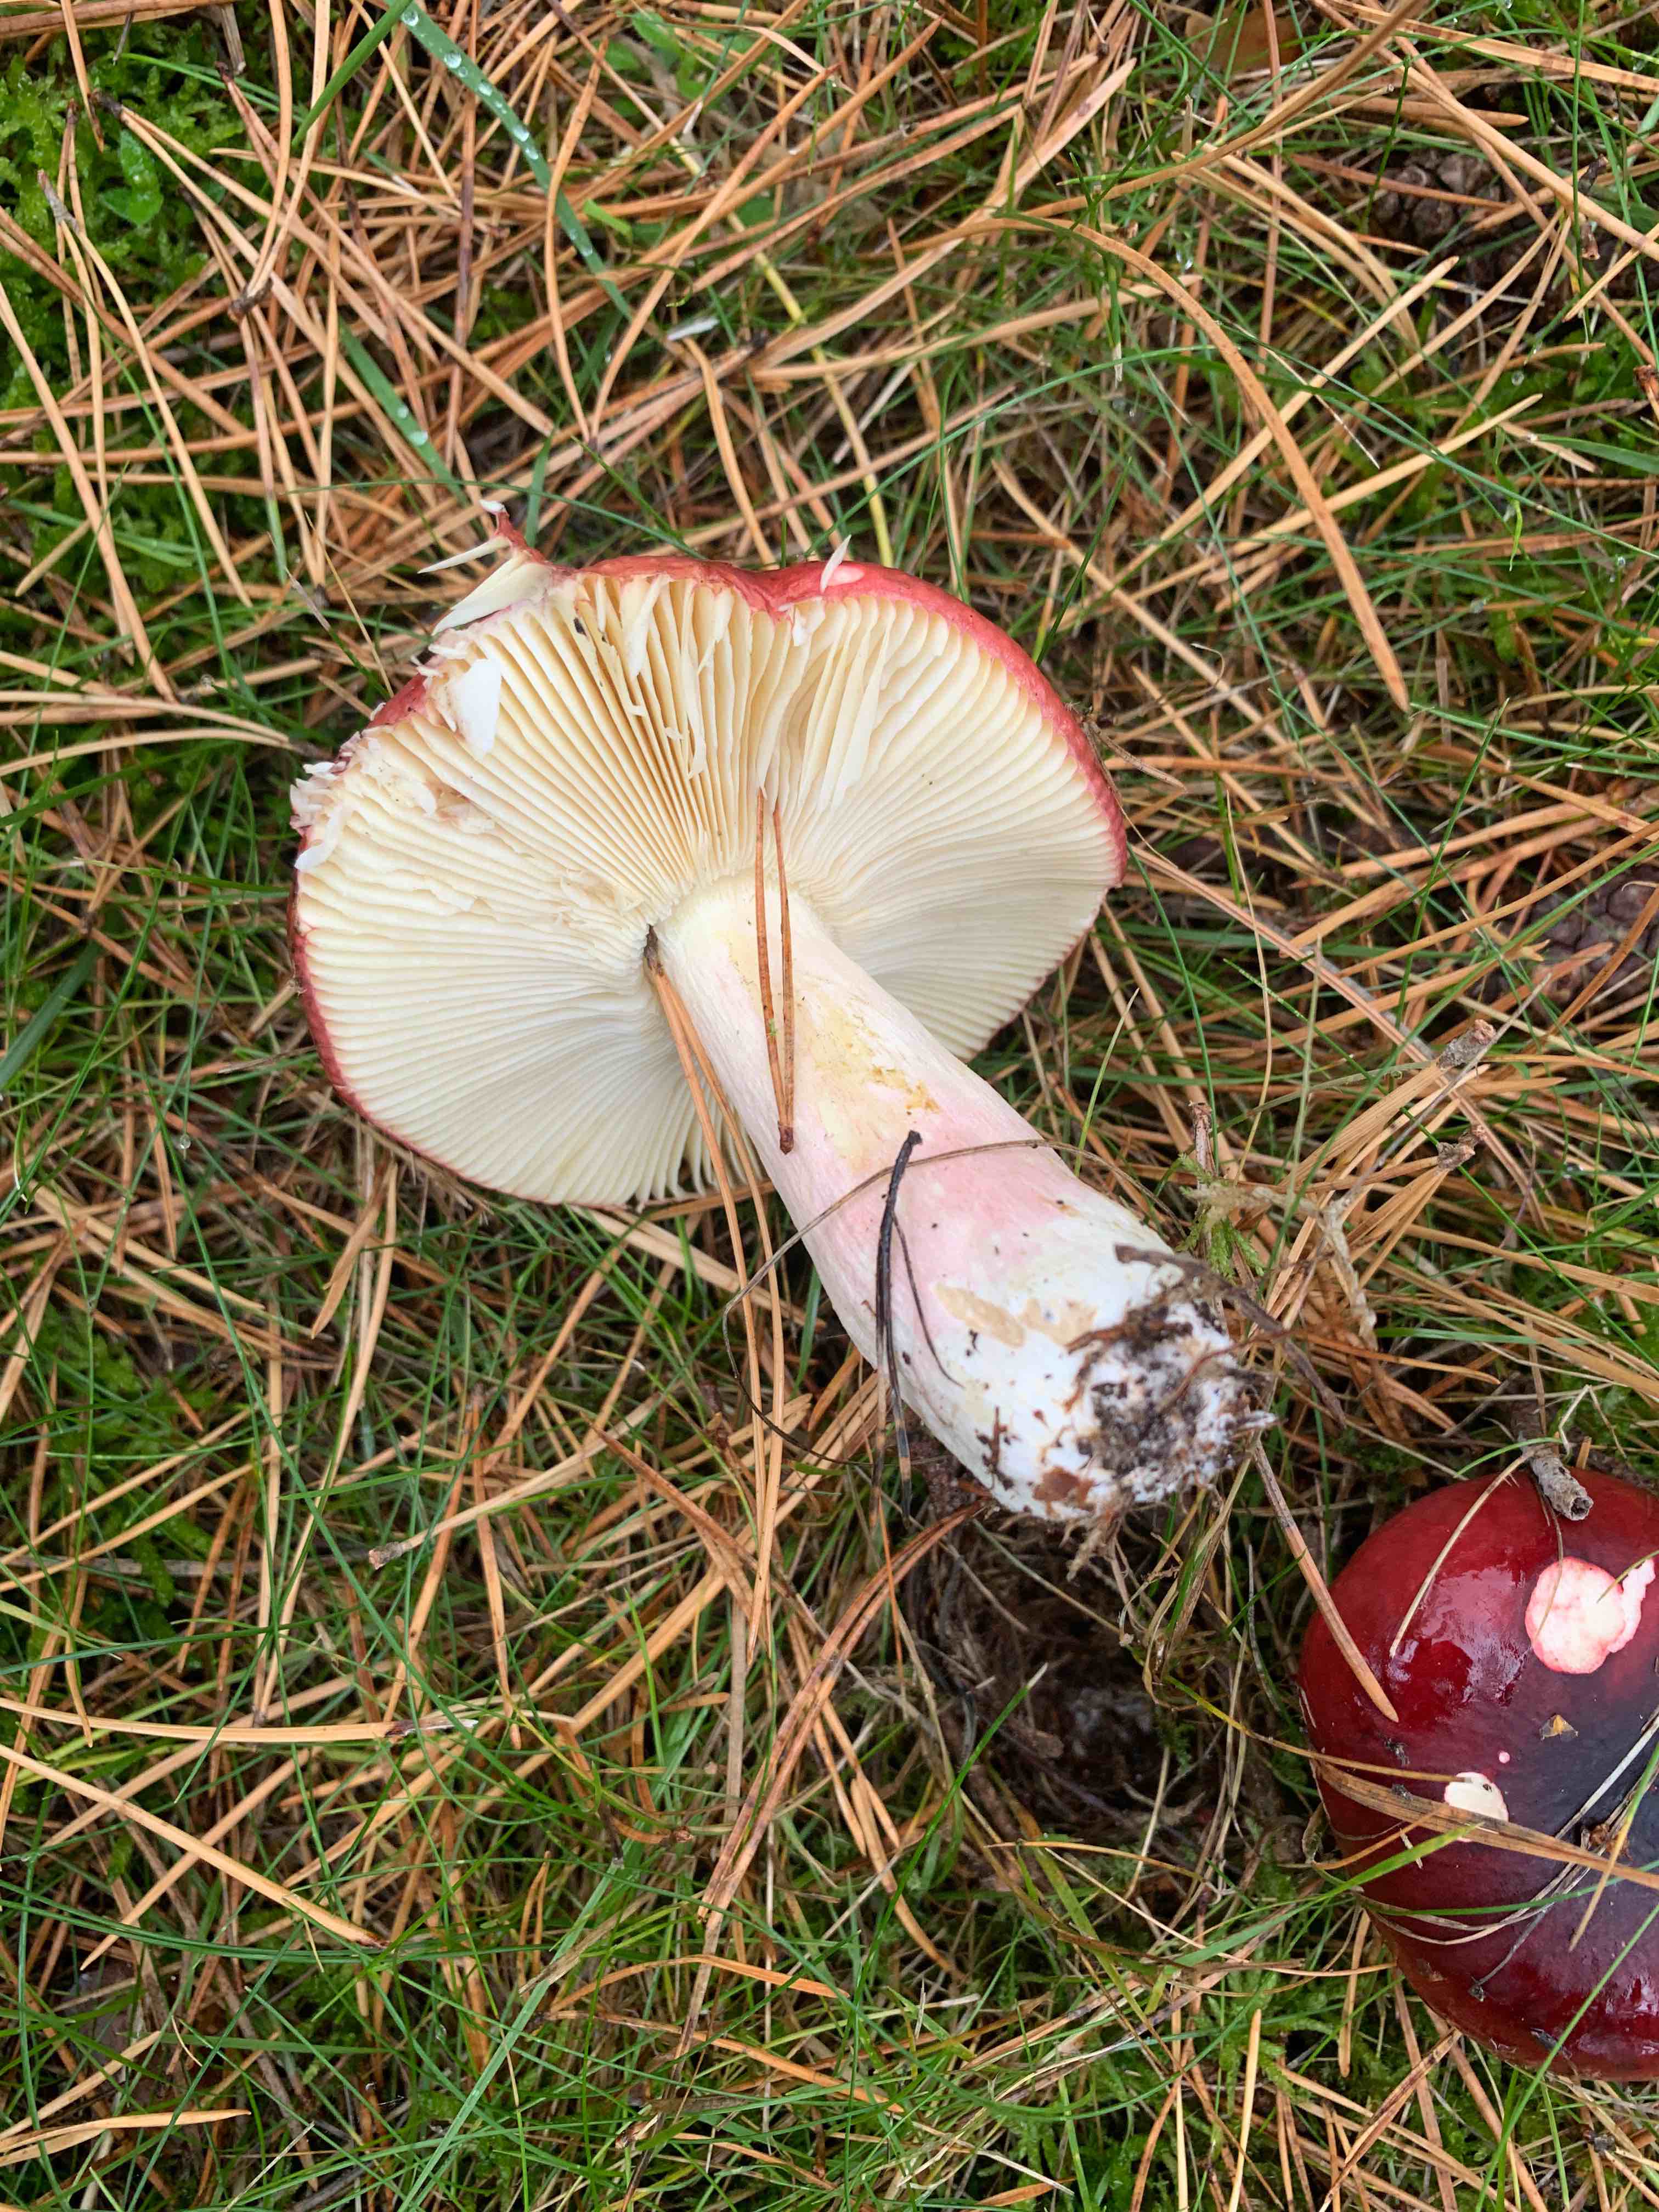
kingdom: Fungi
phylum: Basidiomycota
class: Agaricomycetes
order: Russulales
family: Russulaceae
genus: Russula
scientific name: Russula xerampelina
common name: hummer-skørhat
